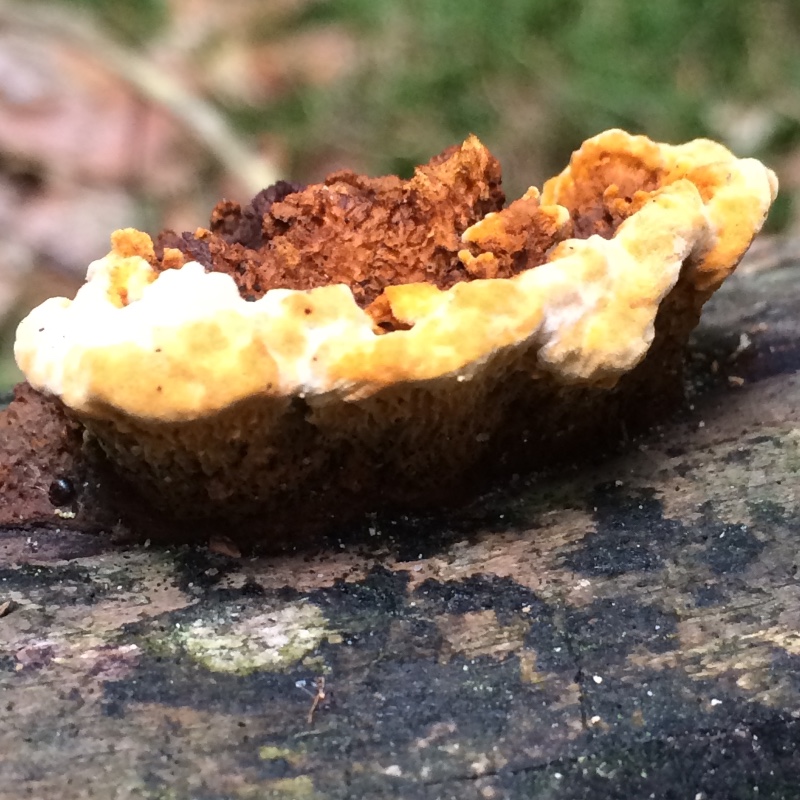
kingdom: Fungi
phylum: Basidiomycota
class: Agaricomycetes
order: Gloeophyllales
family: Gloeophyllaceae
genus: Gloeophyllum
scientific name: Gloeophyllum sepiarium
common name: fyrre-korkhat
